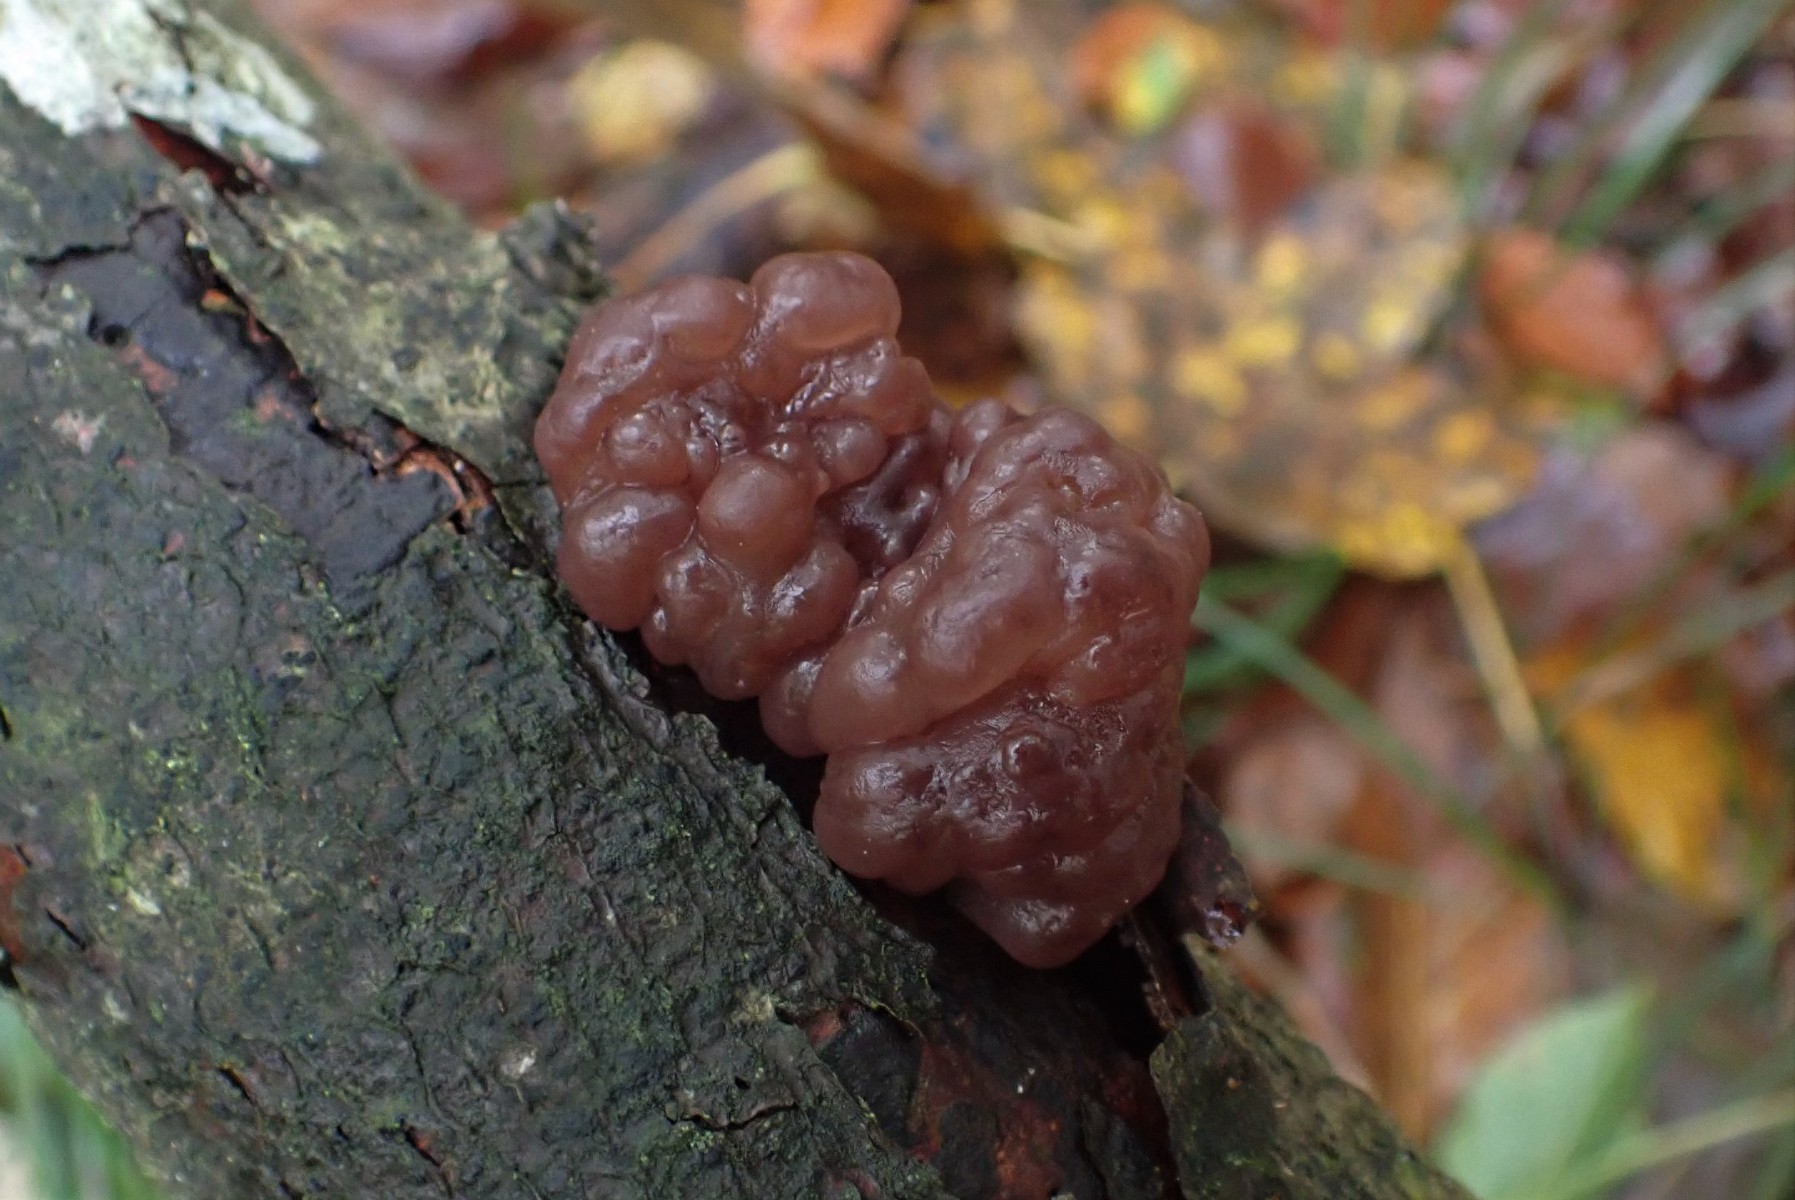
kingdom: Fungi
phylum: Ascomycota
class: Leotiomycetes
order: Helotiales
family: Gelatinodiscaceae
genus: Ascotremella
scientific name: Ascotremella faginea
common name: hjerne-bævreskive
